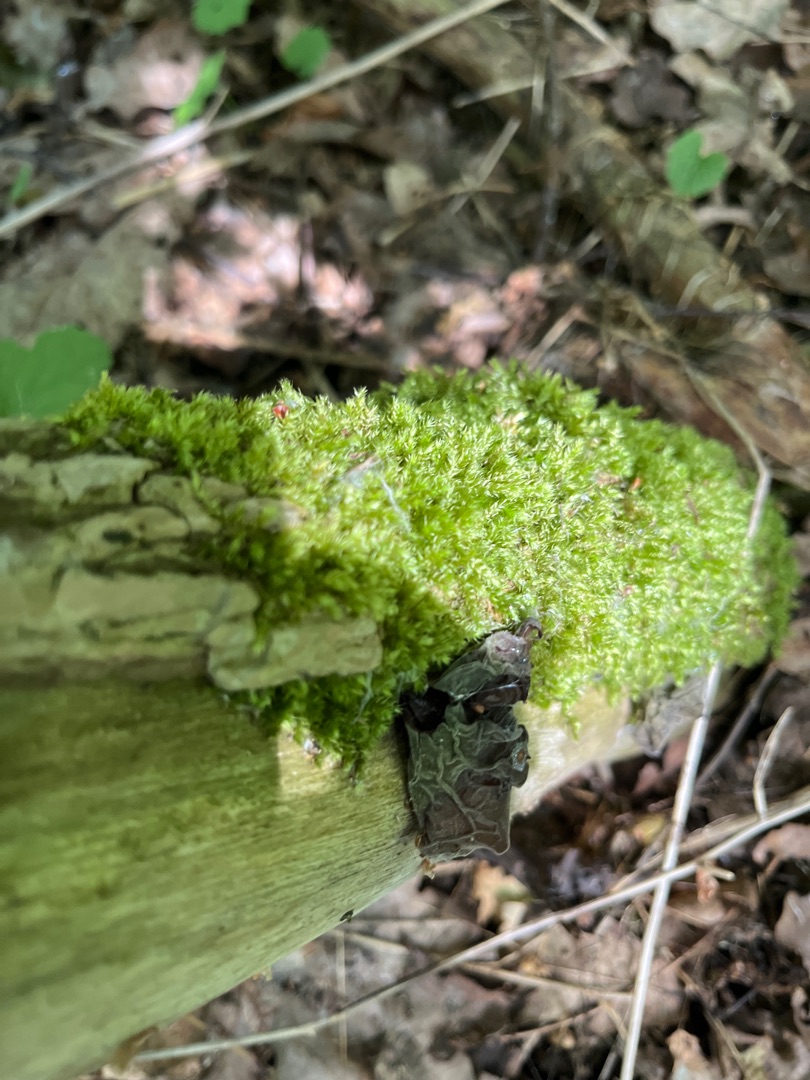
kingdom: Fungi
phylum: Basidiomycota
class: Agaricomycetes
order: Auriculariales
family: Auriculariaceae
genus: Auricularia
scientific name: Auricularia auricula-judae
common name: Almindelig judasøre
